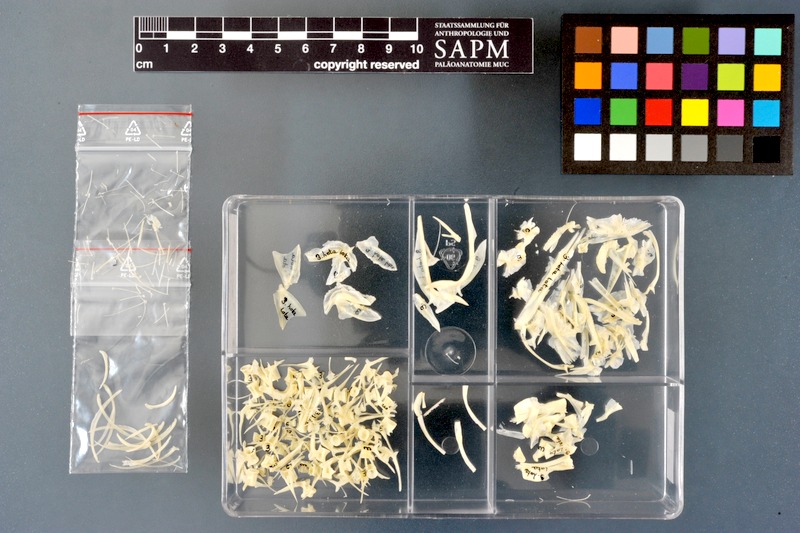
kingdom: Animalia
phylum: Chordata
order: Gadiformes
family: Lotidae
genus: Lota
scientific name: Lota lota
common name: Burbot
